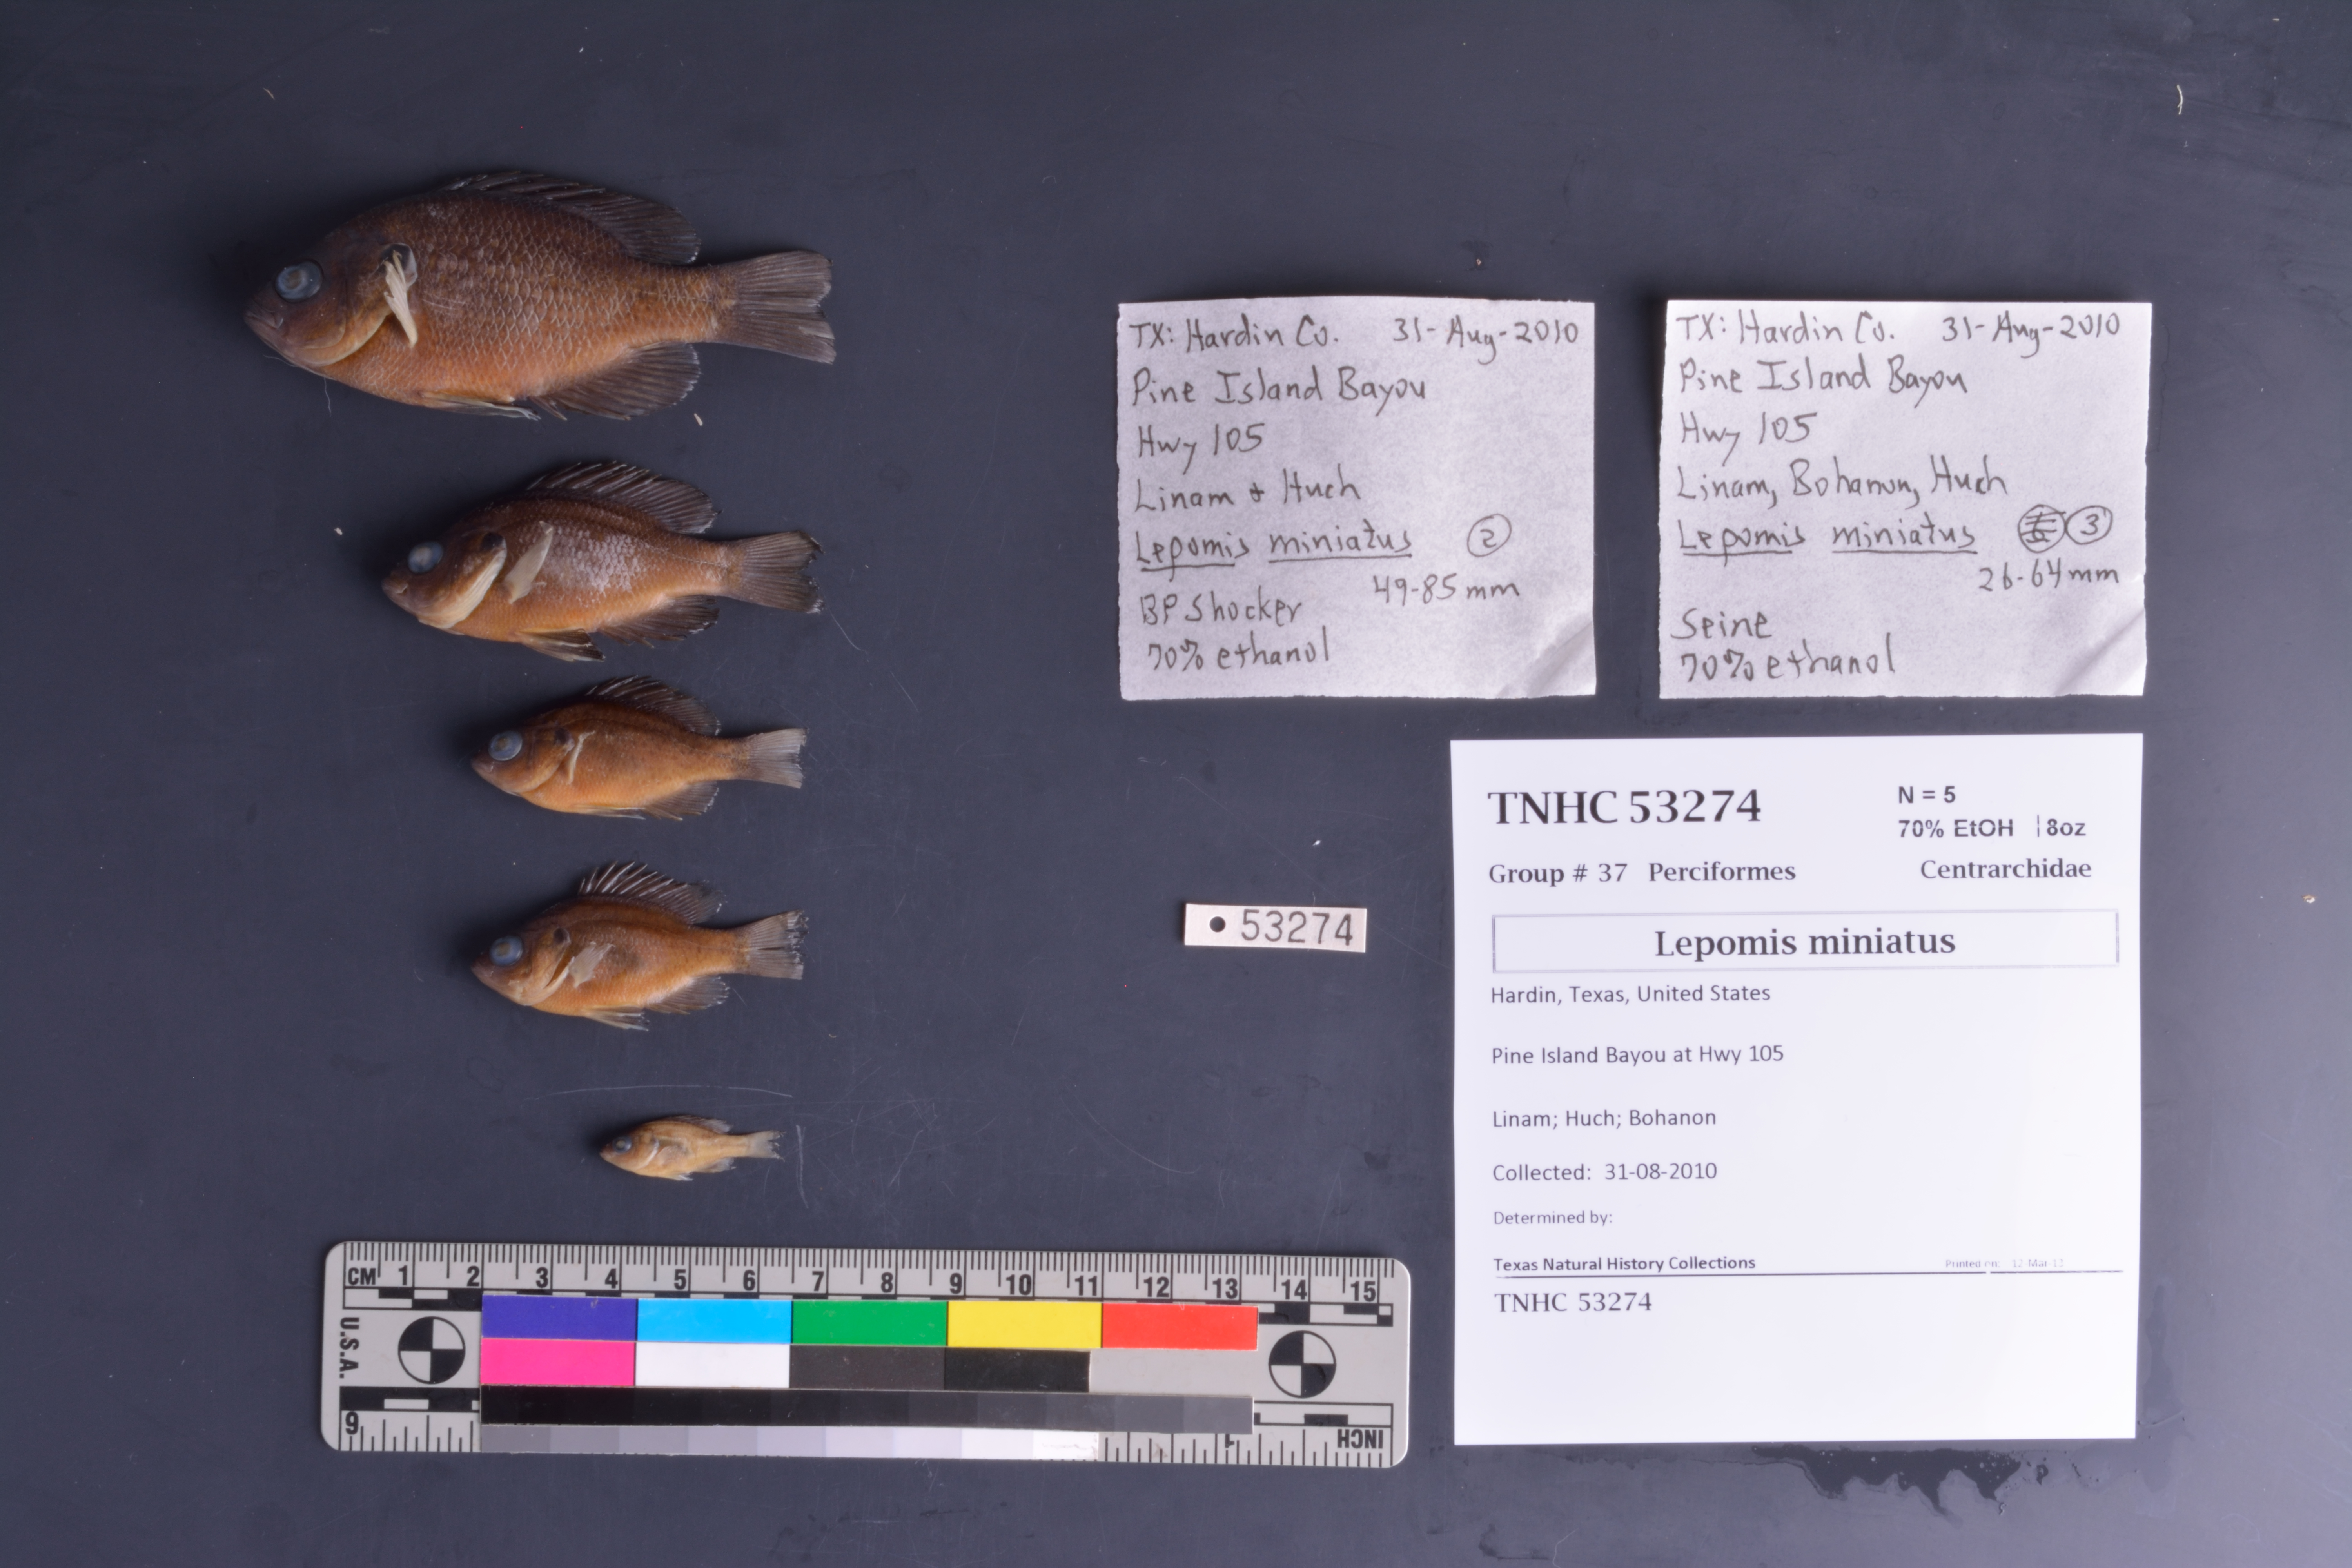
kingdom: Animalia
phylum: Chordata
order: Perciformes
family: Centrarchidae
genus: Lepomis
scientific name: Lepomis miniatus
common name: Redspotted sunfish
